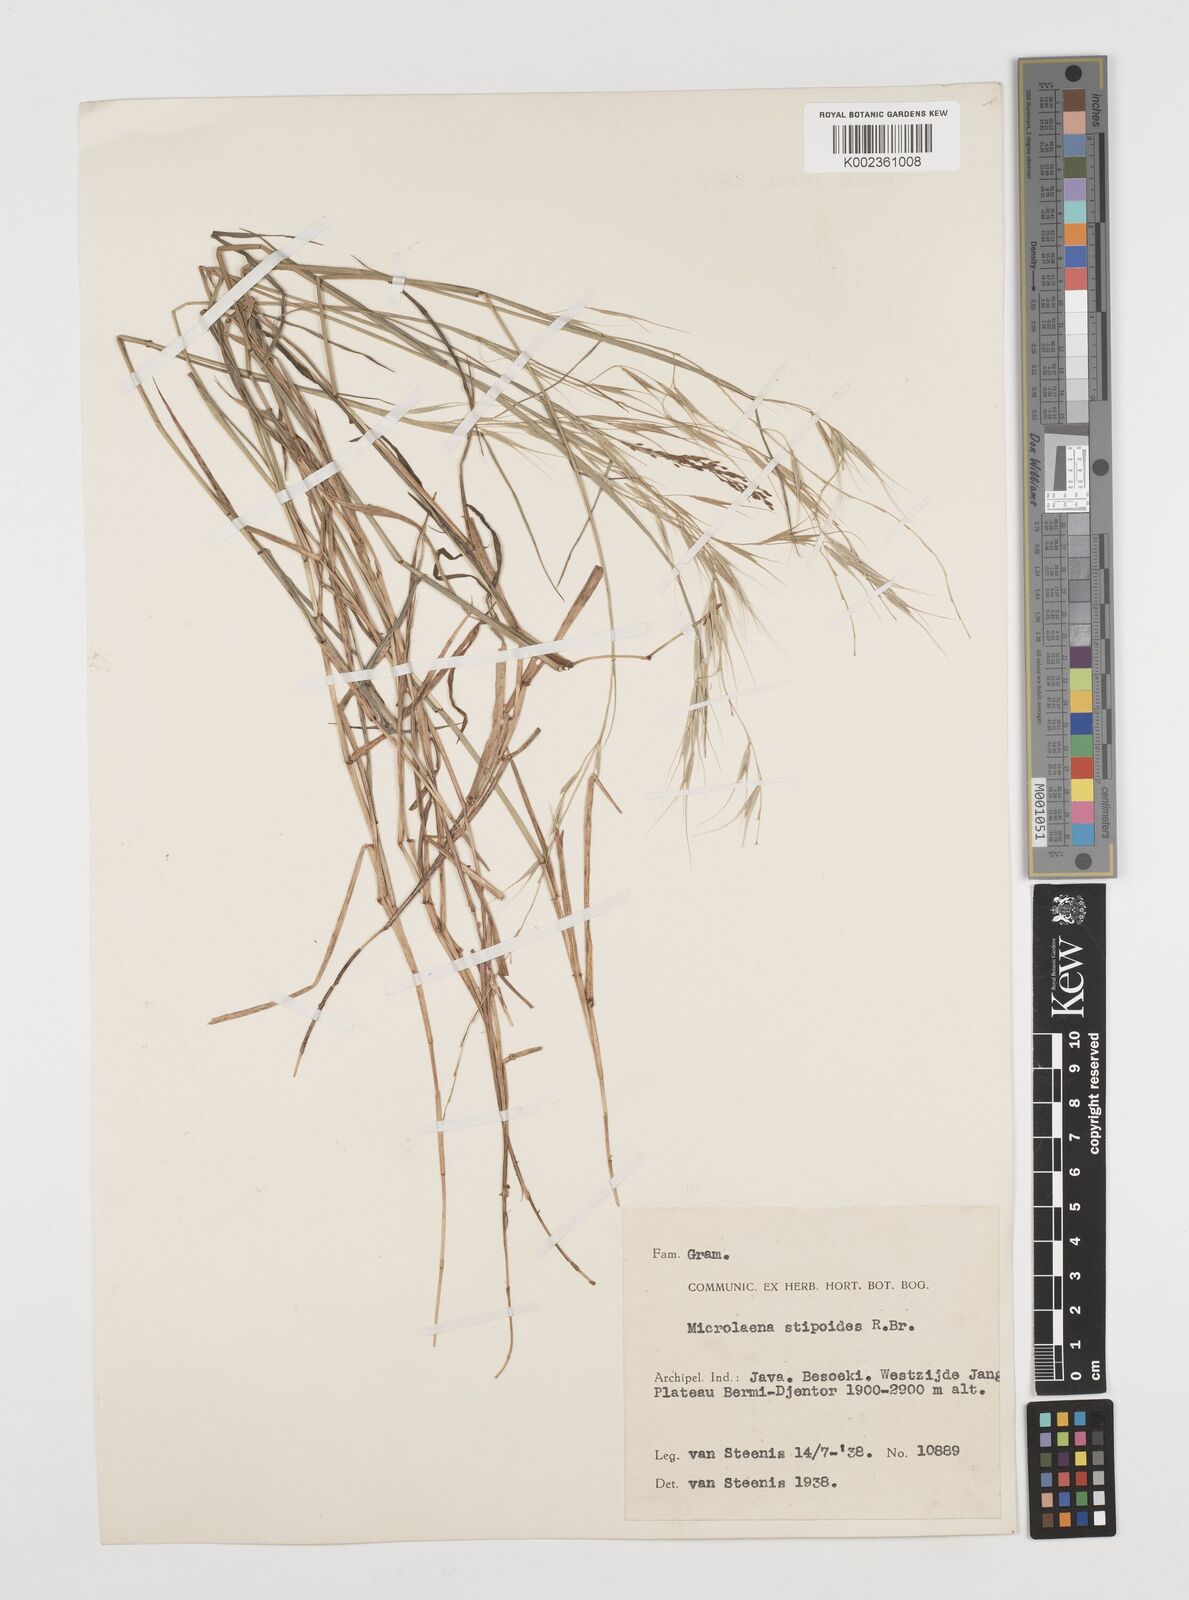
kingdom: Plantae
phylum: Tracheophyta
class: Liliopsida
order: Poales
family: Poaceae
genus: Microlaena
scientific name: Microlaena stipoides
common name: Meadow ricegrass
